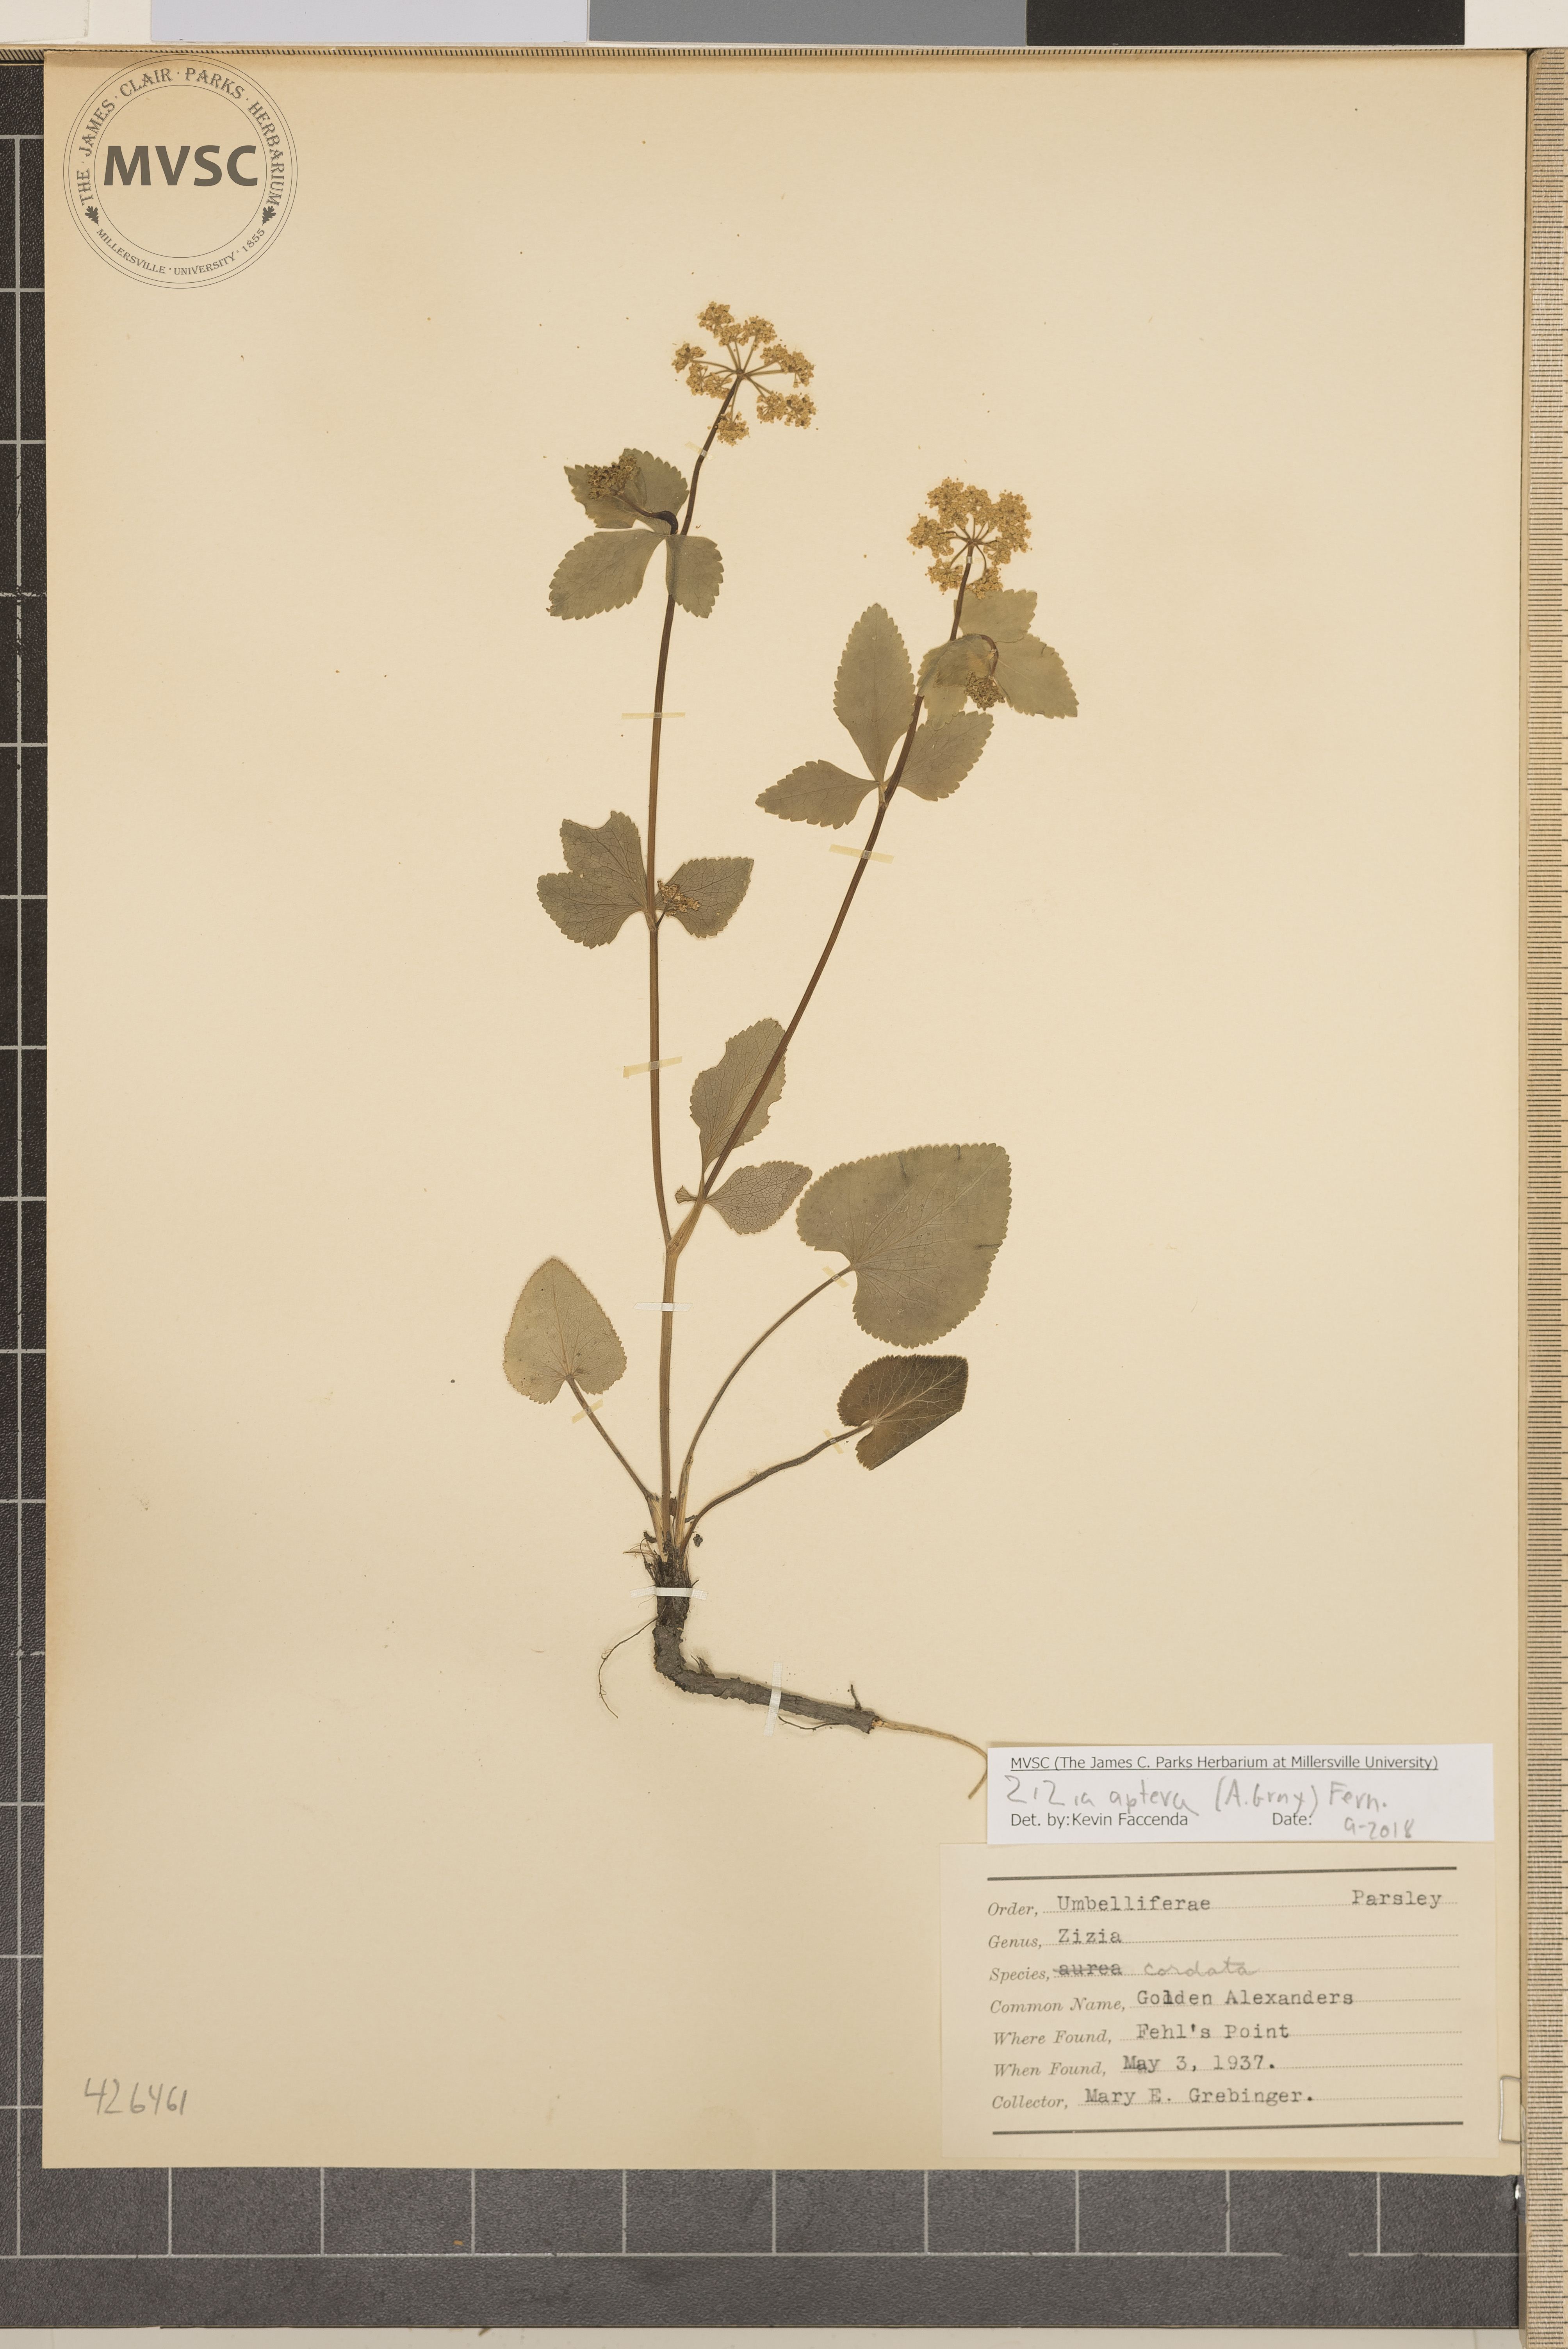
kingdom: Plantae
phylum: Tracheophyta
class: Magnoliopsida
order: Apiales
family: Apiaceae
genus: Zizia
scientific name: Zizia aptera
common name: Golden Alexanders
